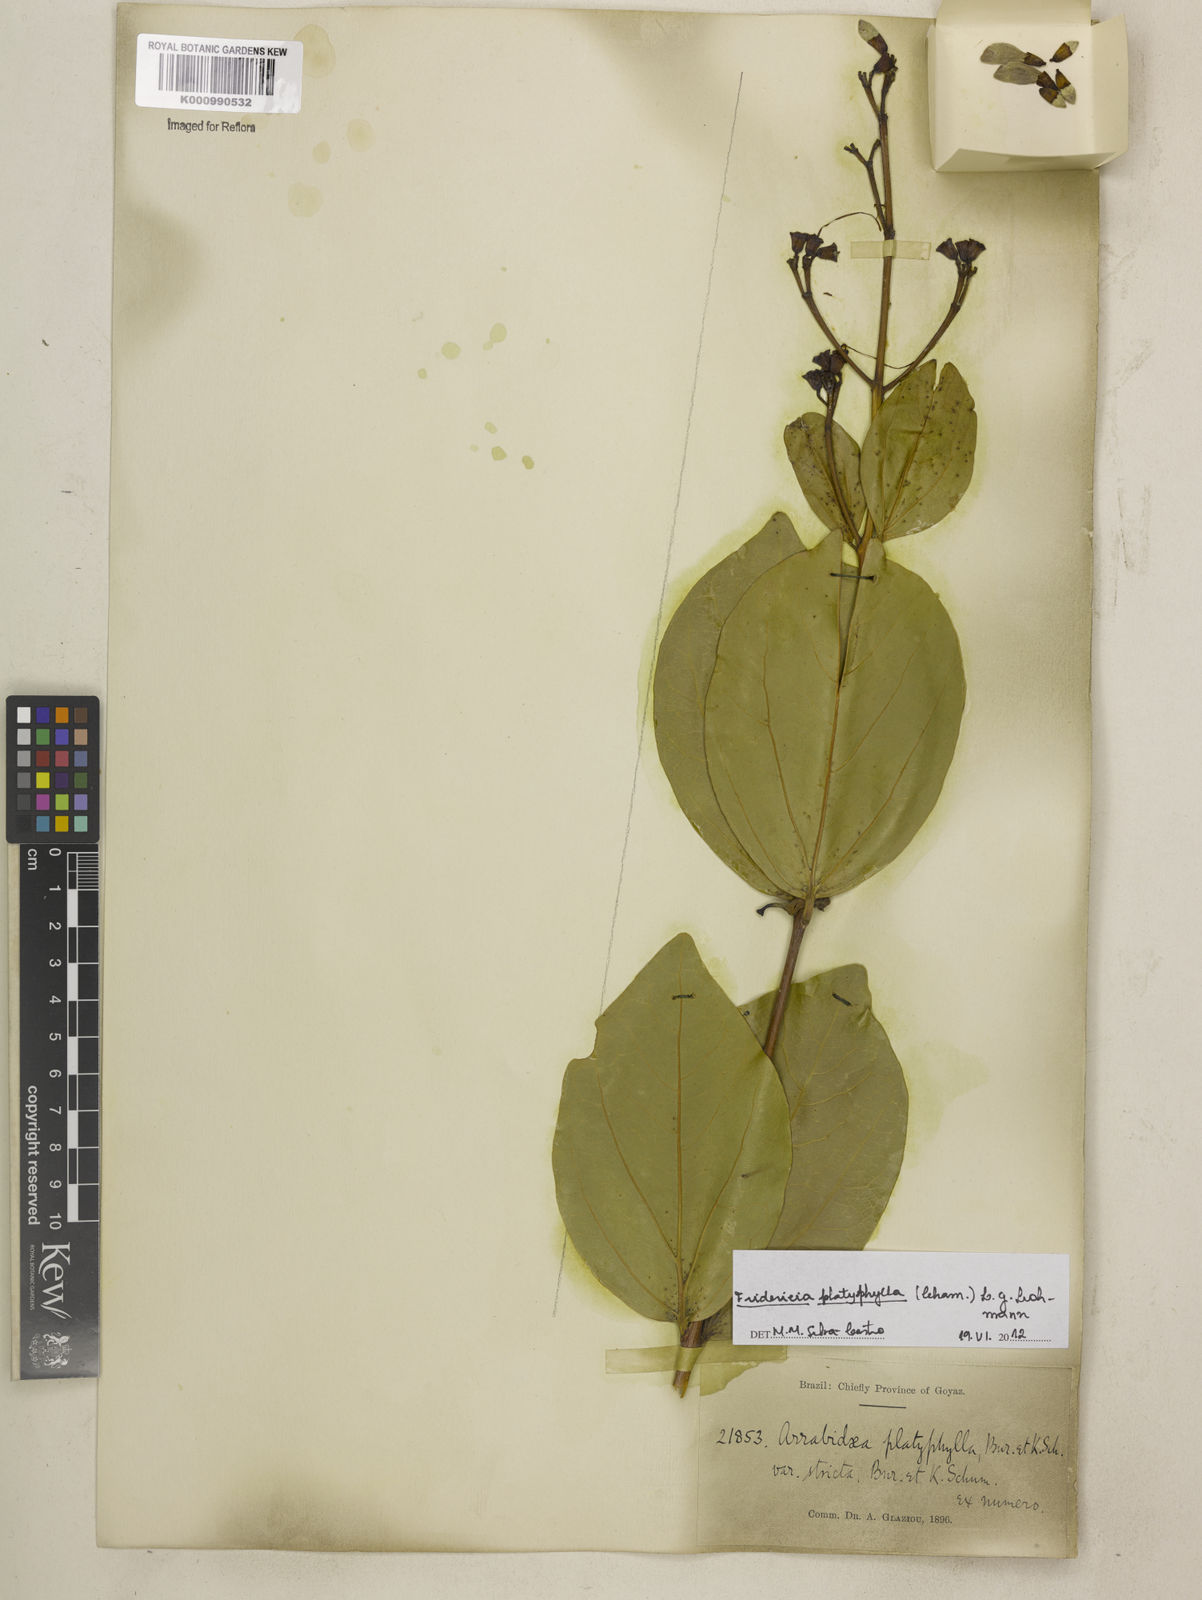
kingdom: Plantae
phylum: Tracheophyta
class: Magnoliopsida
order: Lamiales
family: Bignoniaceae
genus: Fridericia
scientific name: Fridericia platyphylla
